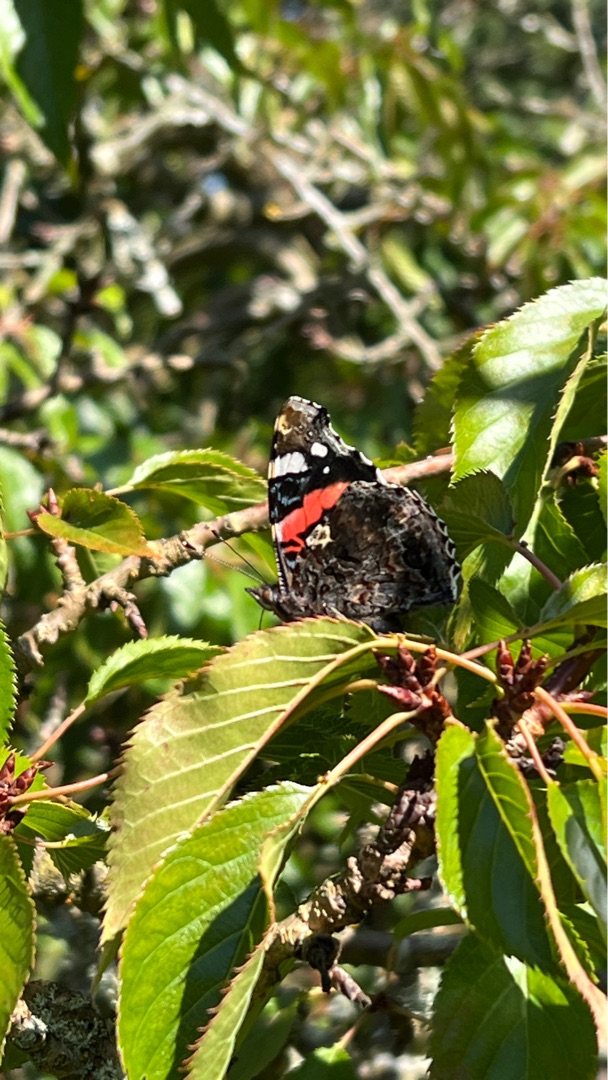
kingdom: Animalia
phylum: Arthropoda
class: Insecta
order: Lepidoptera
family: Nymphalidae
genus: Vanessa
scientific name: Vanessa atalanta
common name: Admiral
